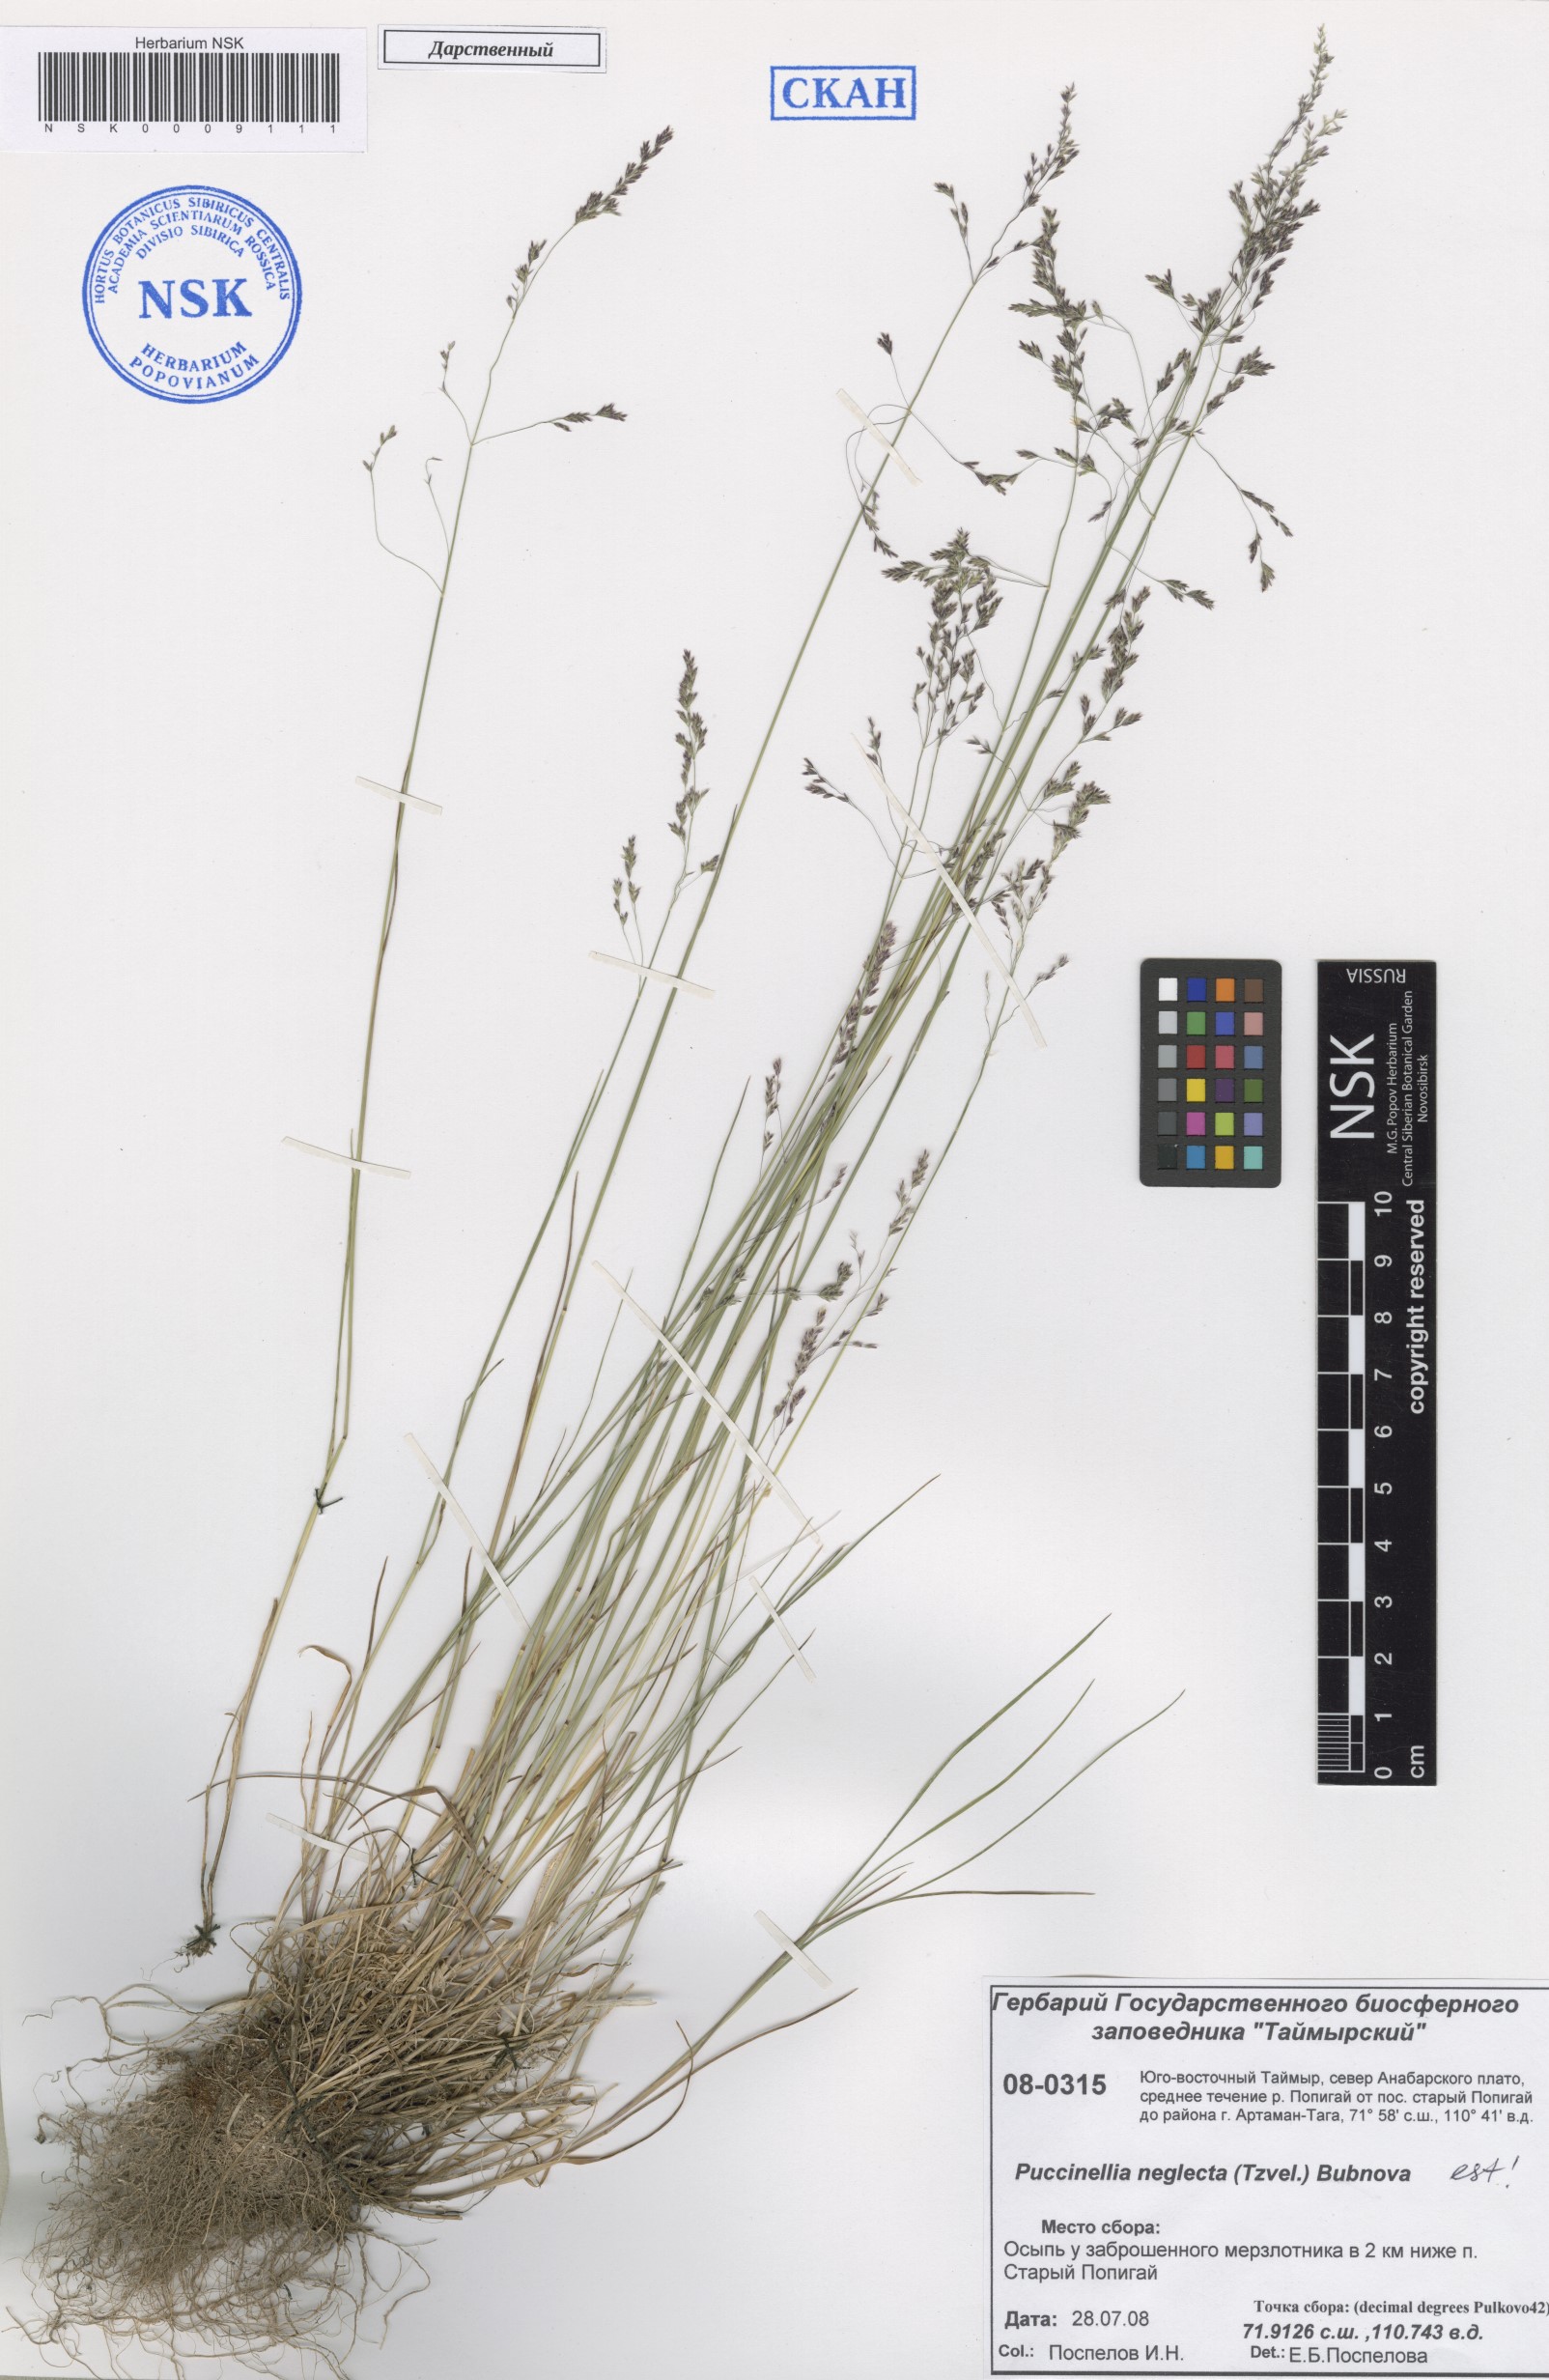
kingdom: Plantae
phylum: Tracheophyta
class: Liliopsida
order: Poales
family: Poaceae
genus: Puccinellia
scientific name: Puccinellia nuttalliana
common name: Nuttall's alkali grass
